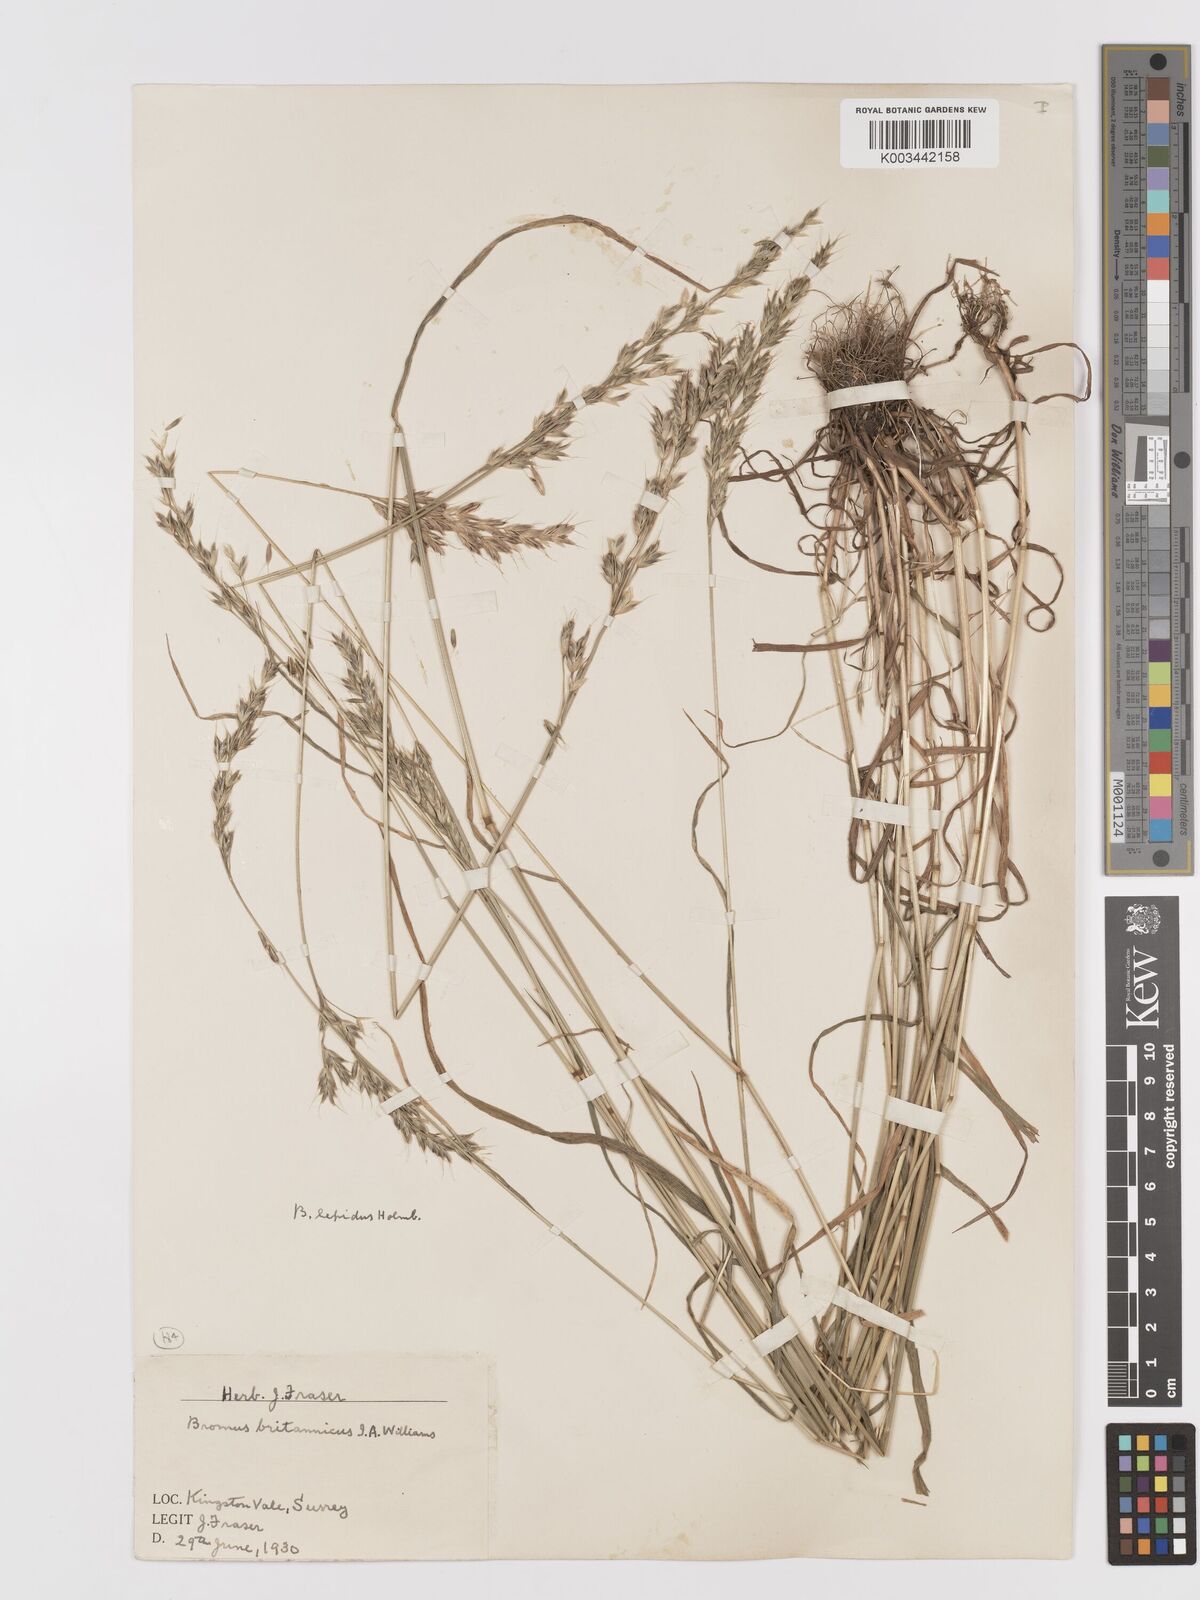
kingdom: Plantae
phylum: Tracheophyta
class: Liliopsida
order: Poales
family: Poaceae
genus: Bromus
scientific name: Bromus lepidus
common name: Slender soft-brome
